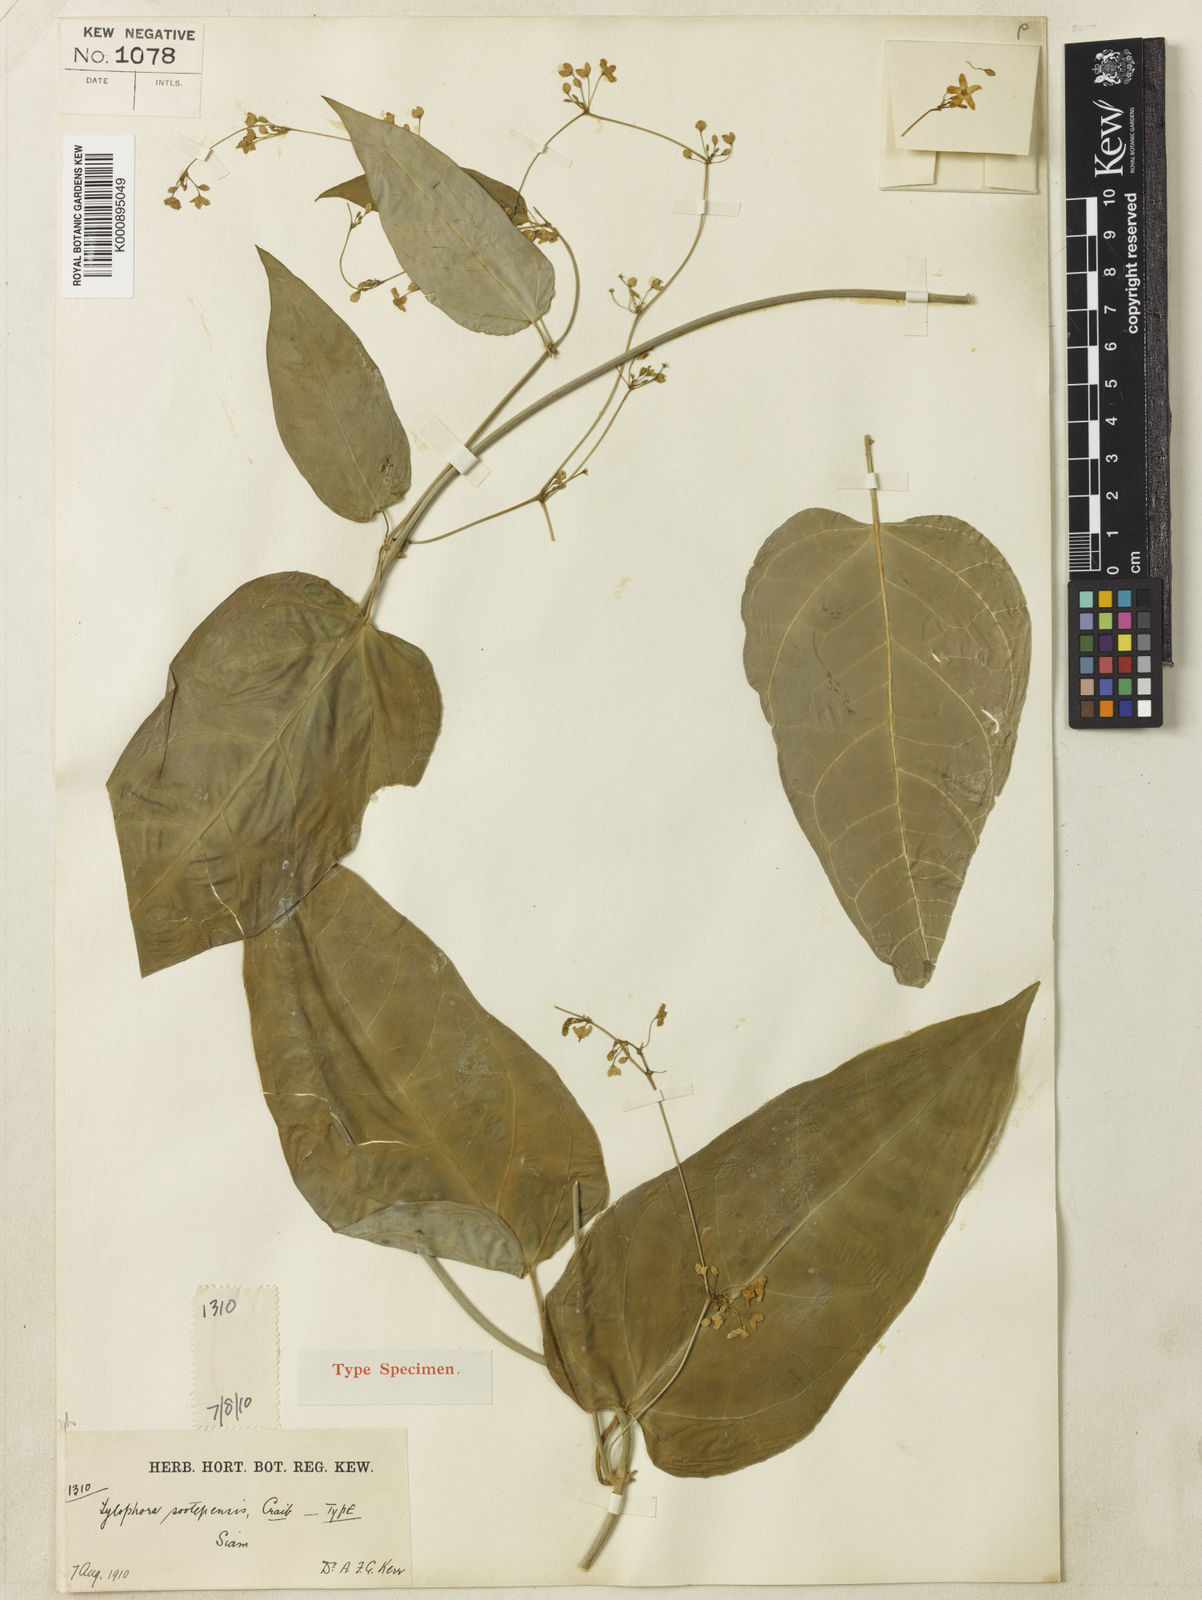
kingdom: Plantae
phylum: Tracheophyta
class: Magnoliopsida
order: Gentianales
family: Apocynaceae
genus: Vincetoxicum
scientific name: Vincetoxicum sootepense
